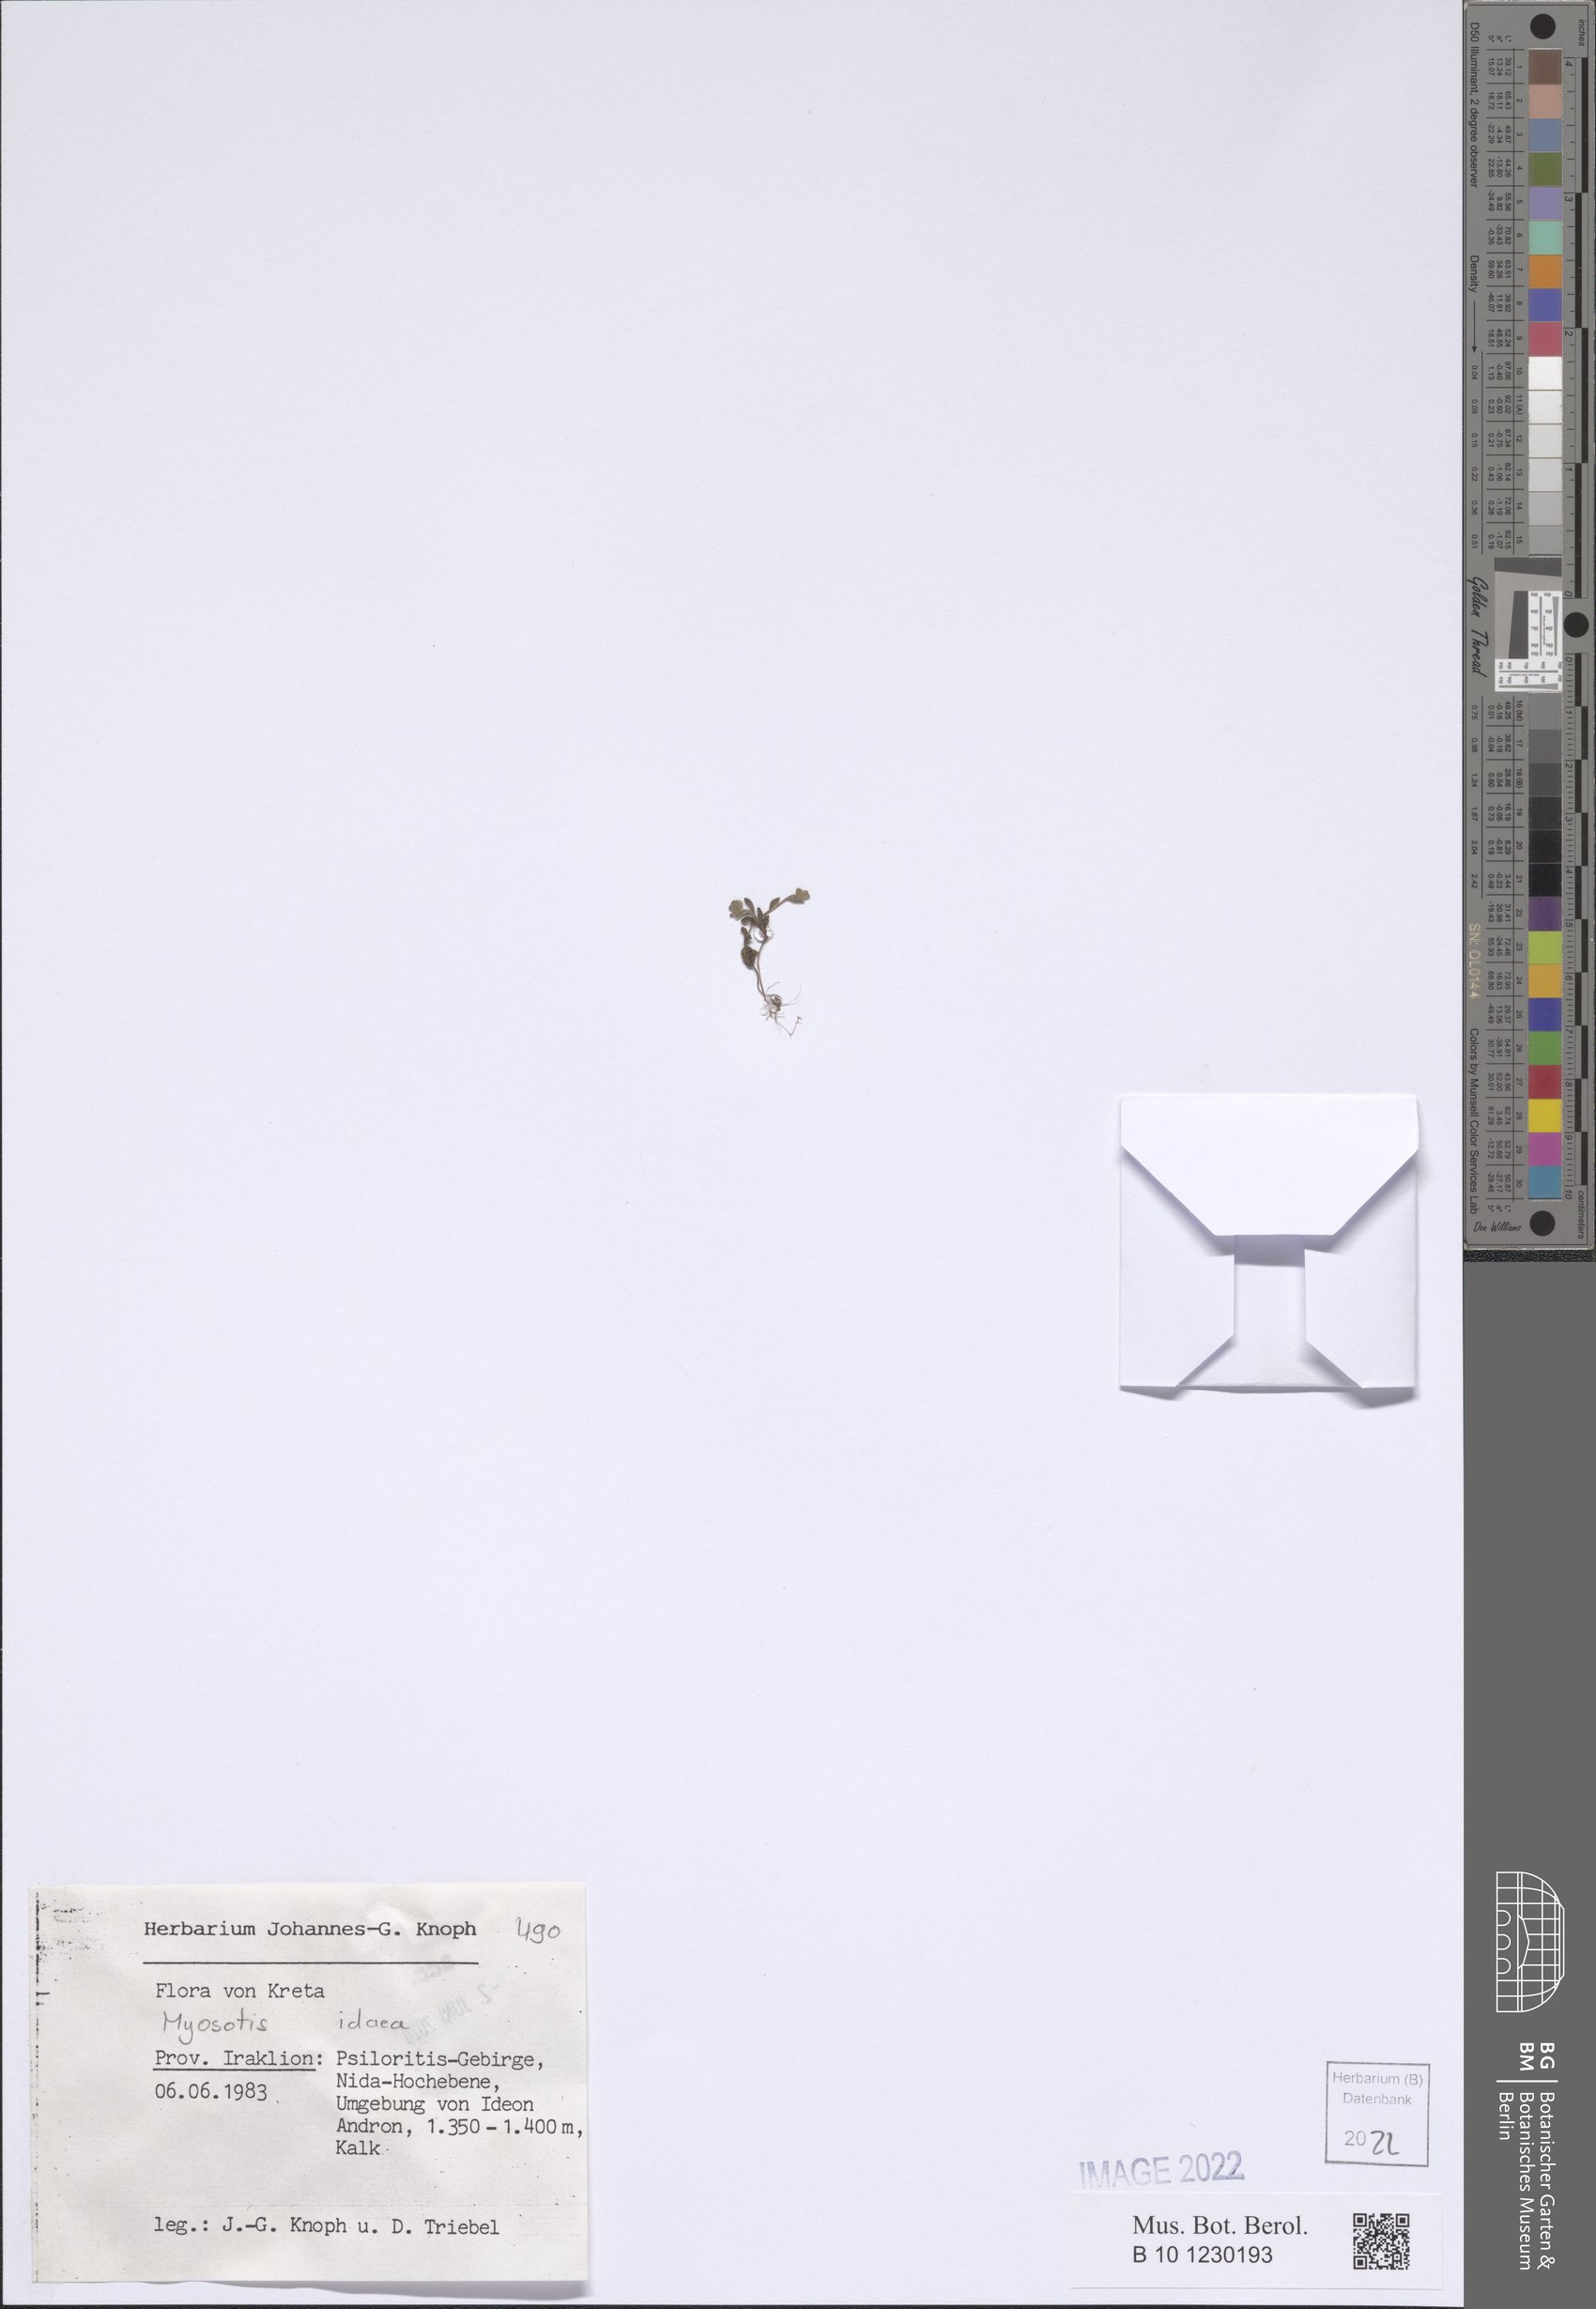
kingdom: Plantae
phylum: Tracheophyta
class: Magnoliopsida
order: Boraginales
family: Boraginaceae
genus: Myosotis
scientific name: Myosotis incrassata
